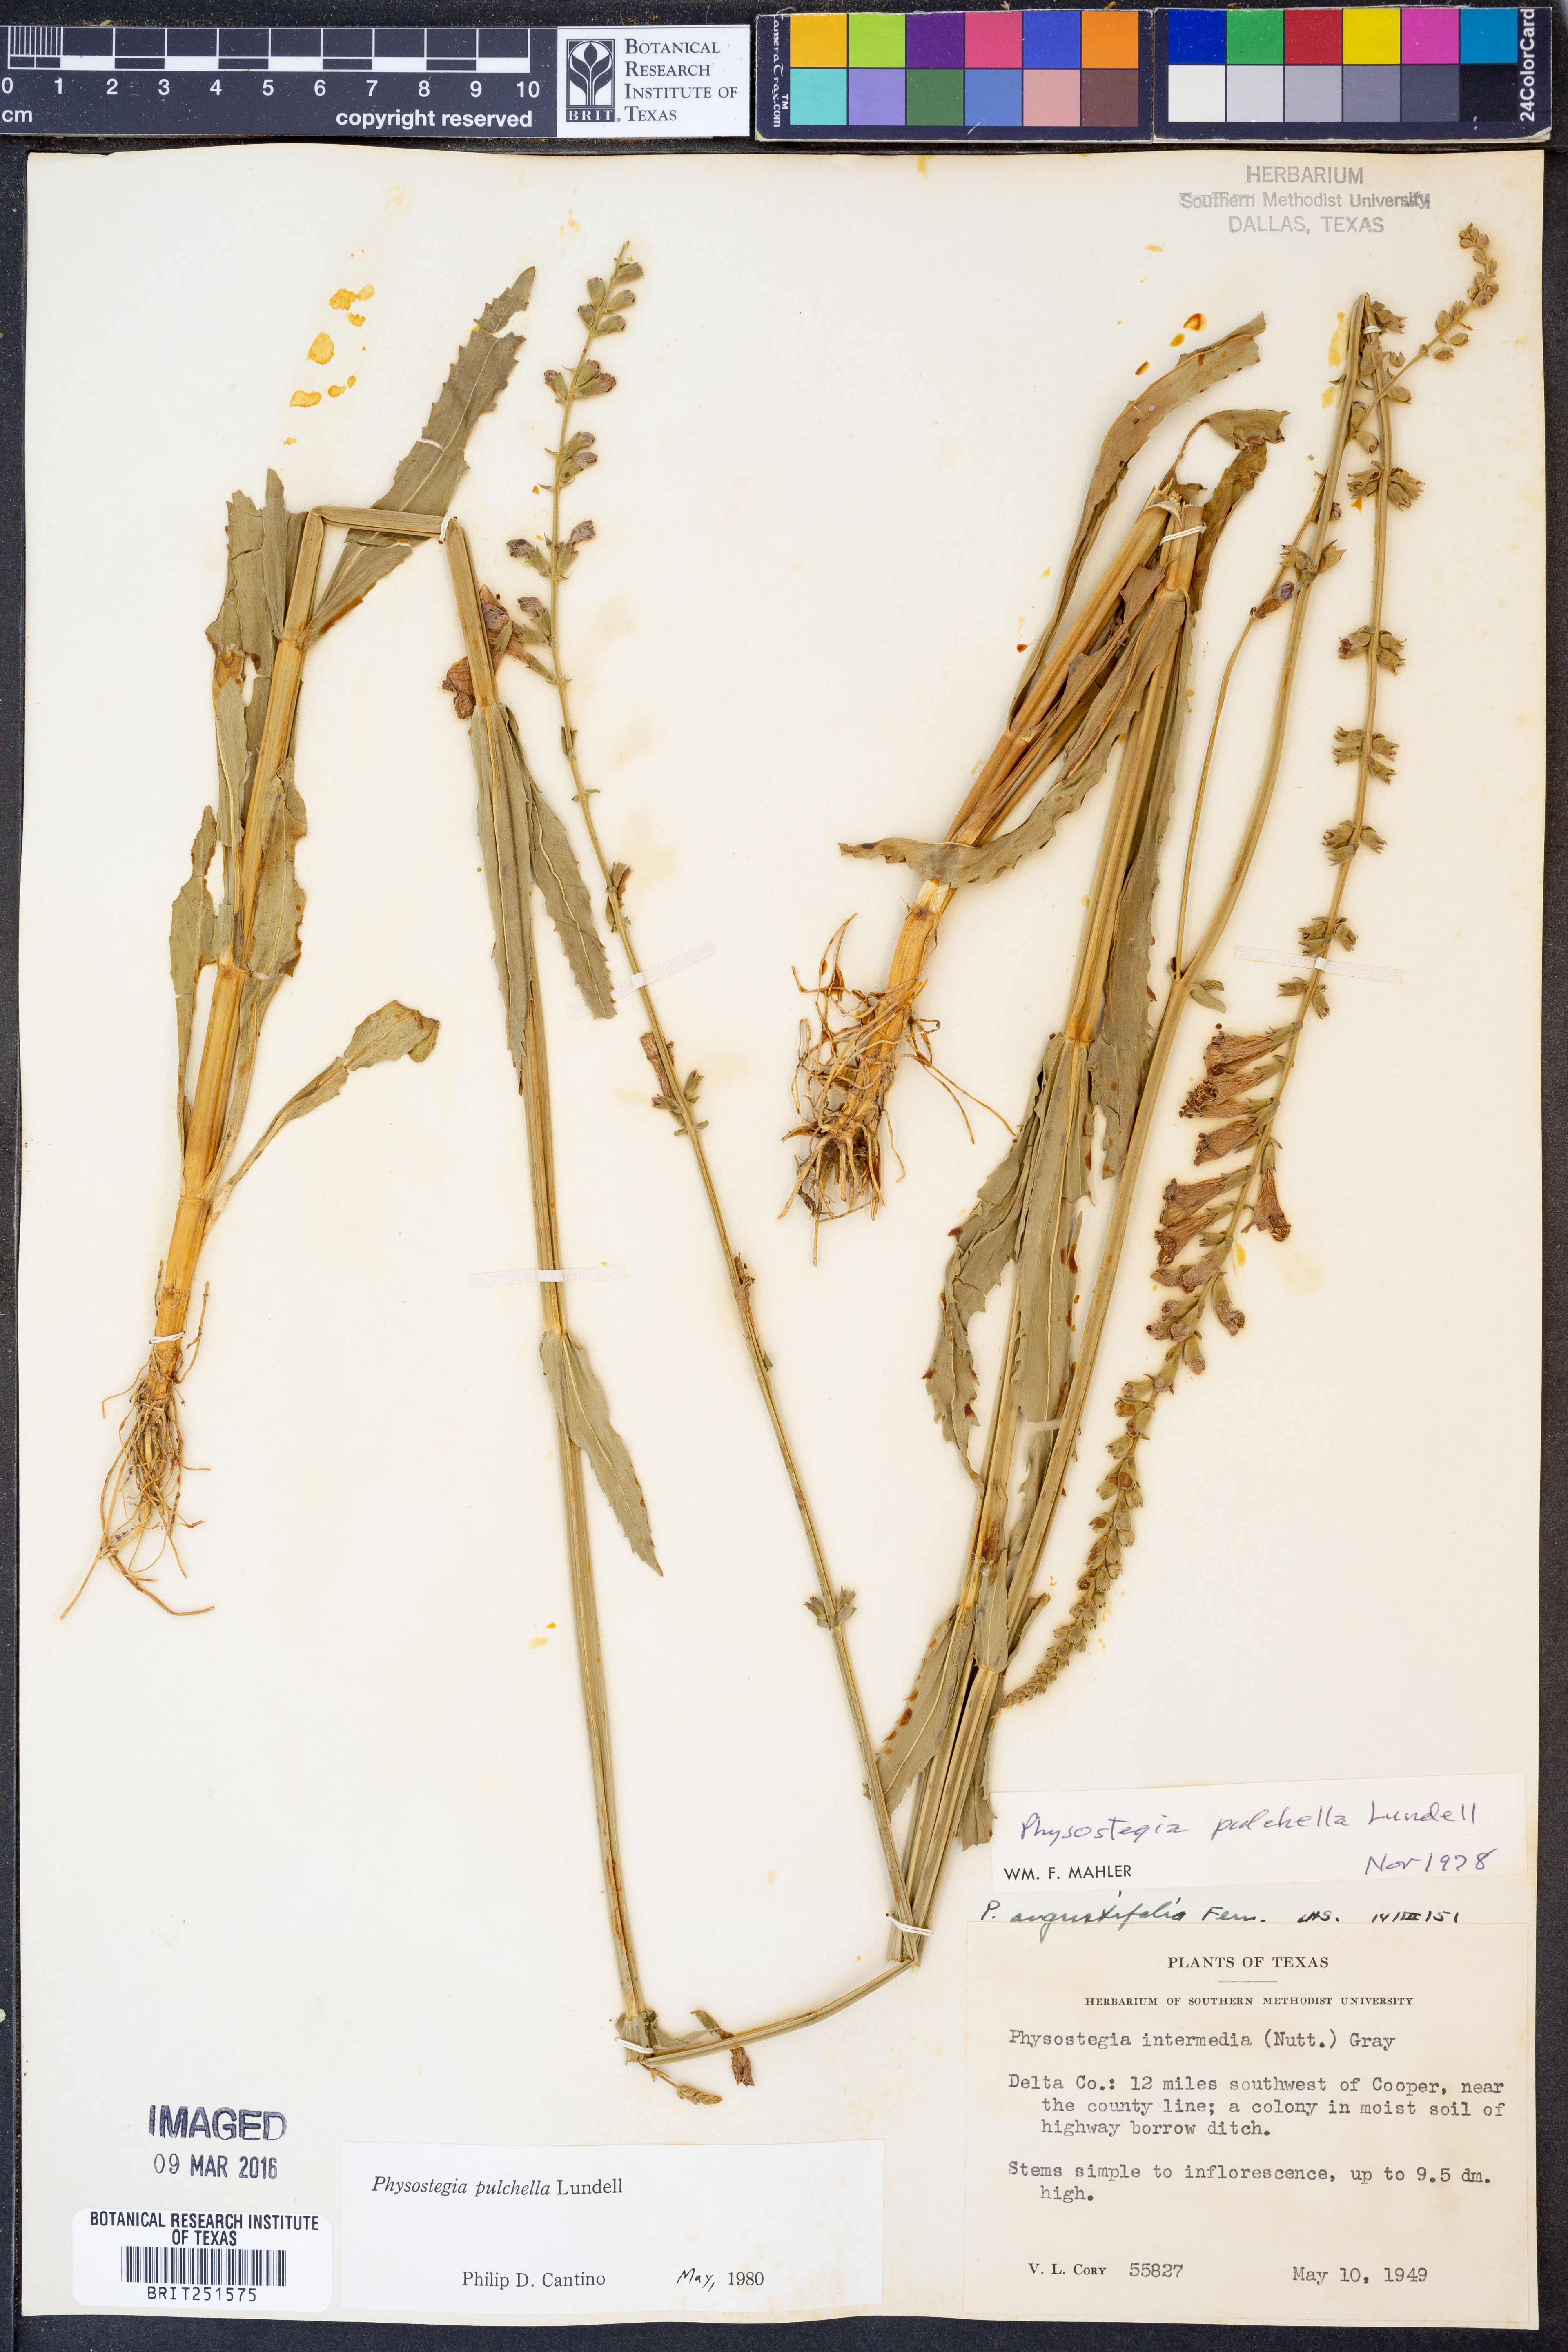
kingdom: Plantae
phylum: Tracheophyta
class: Magnoliopsida
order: Lamiales
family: Lamiaceae
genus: Physostegia
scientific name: Physostegia pulchella
